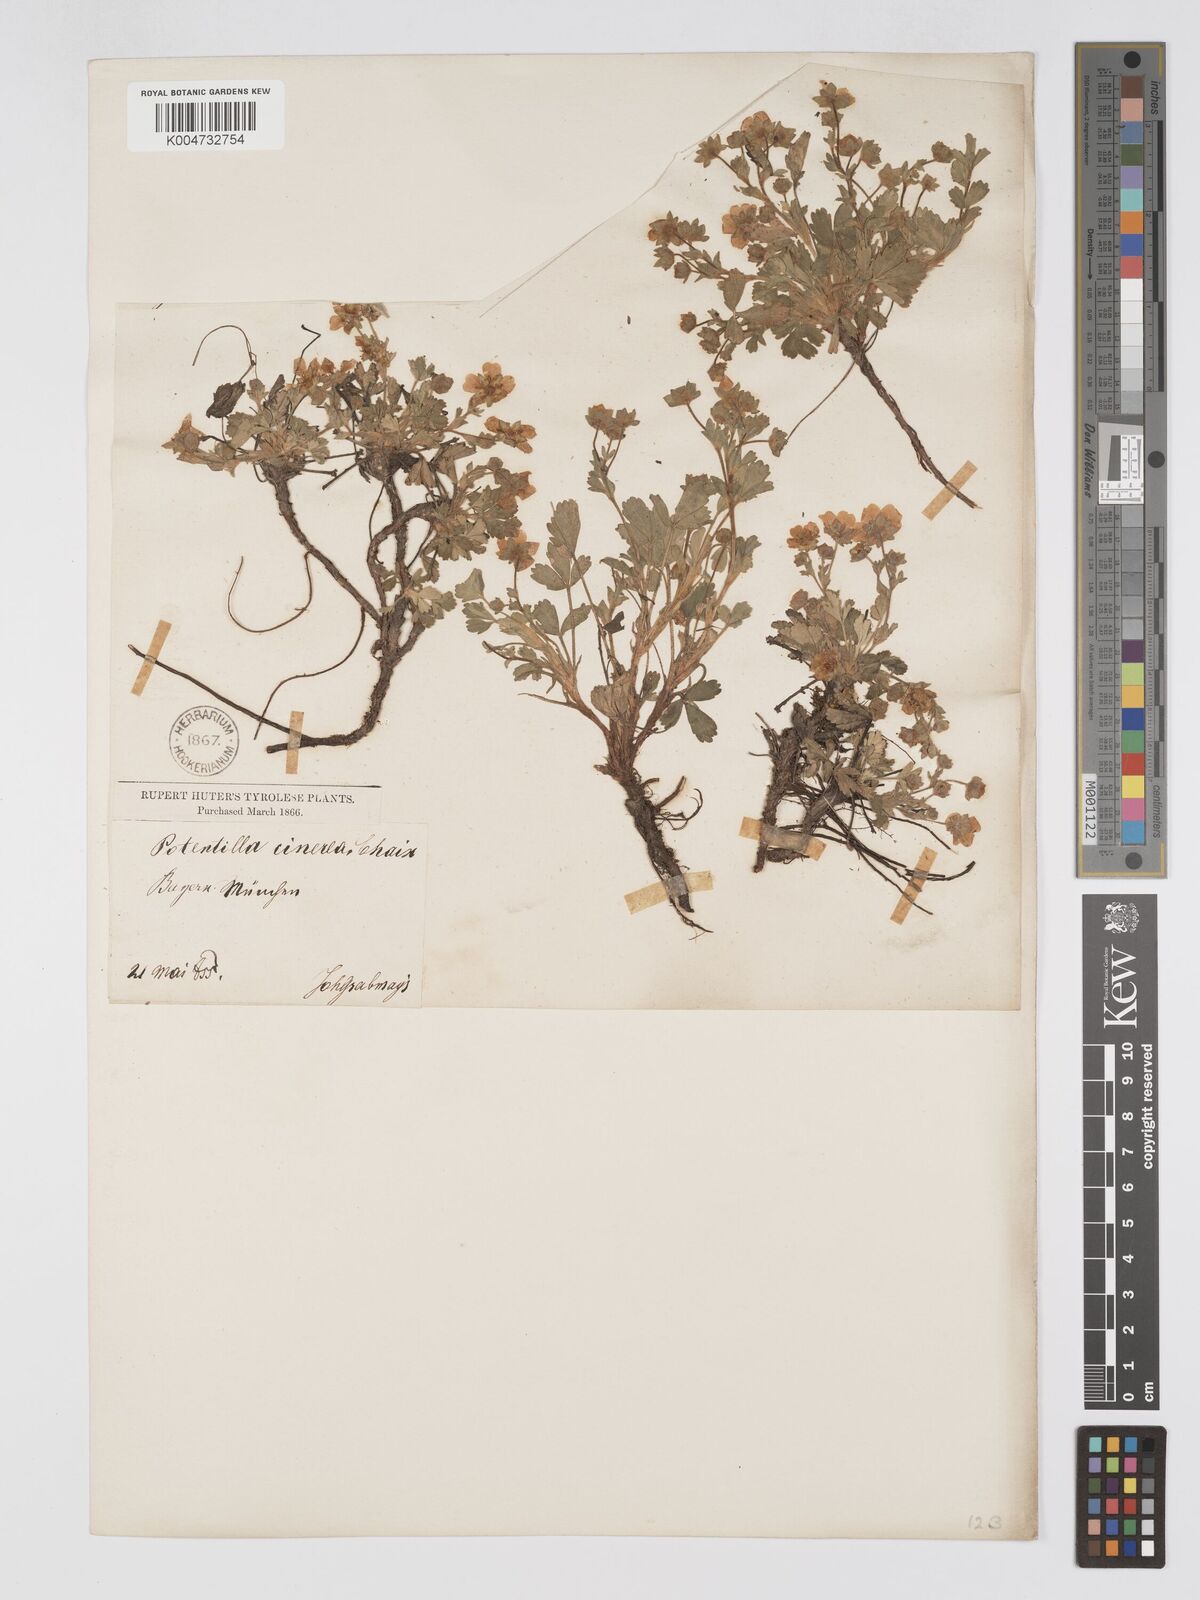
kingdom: Plantae
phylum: Tracheophyta
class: Magnoliopsida
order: Rosales
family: Rosaceae
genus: Potentilla
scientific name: Potentilla
